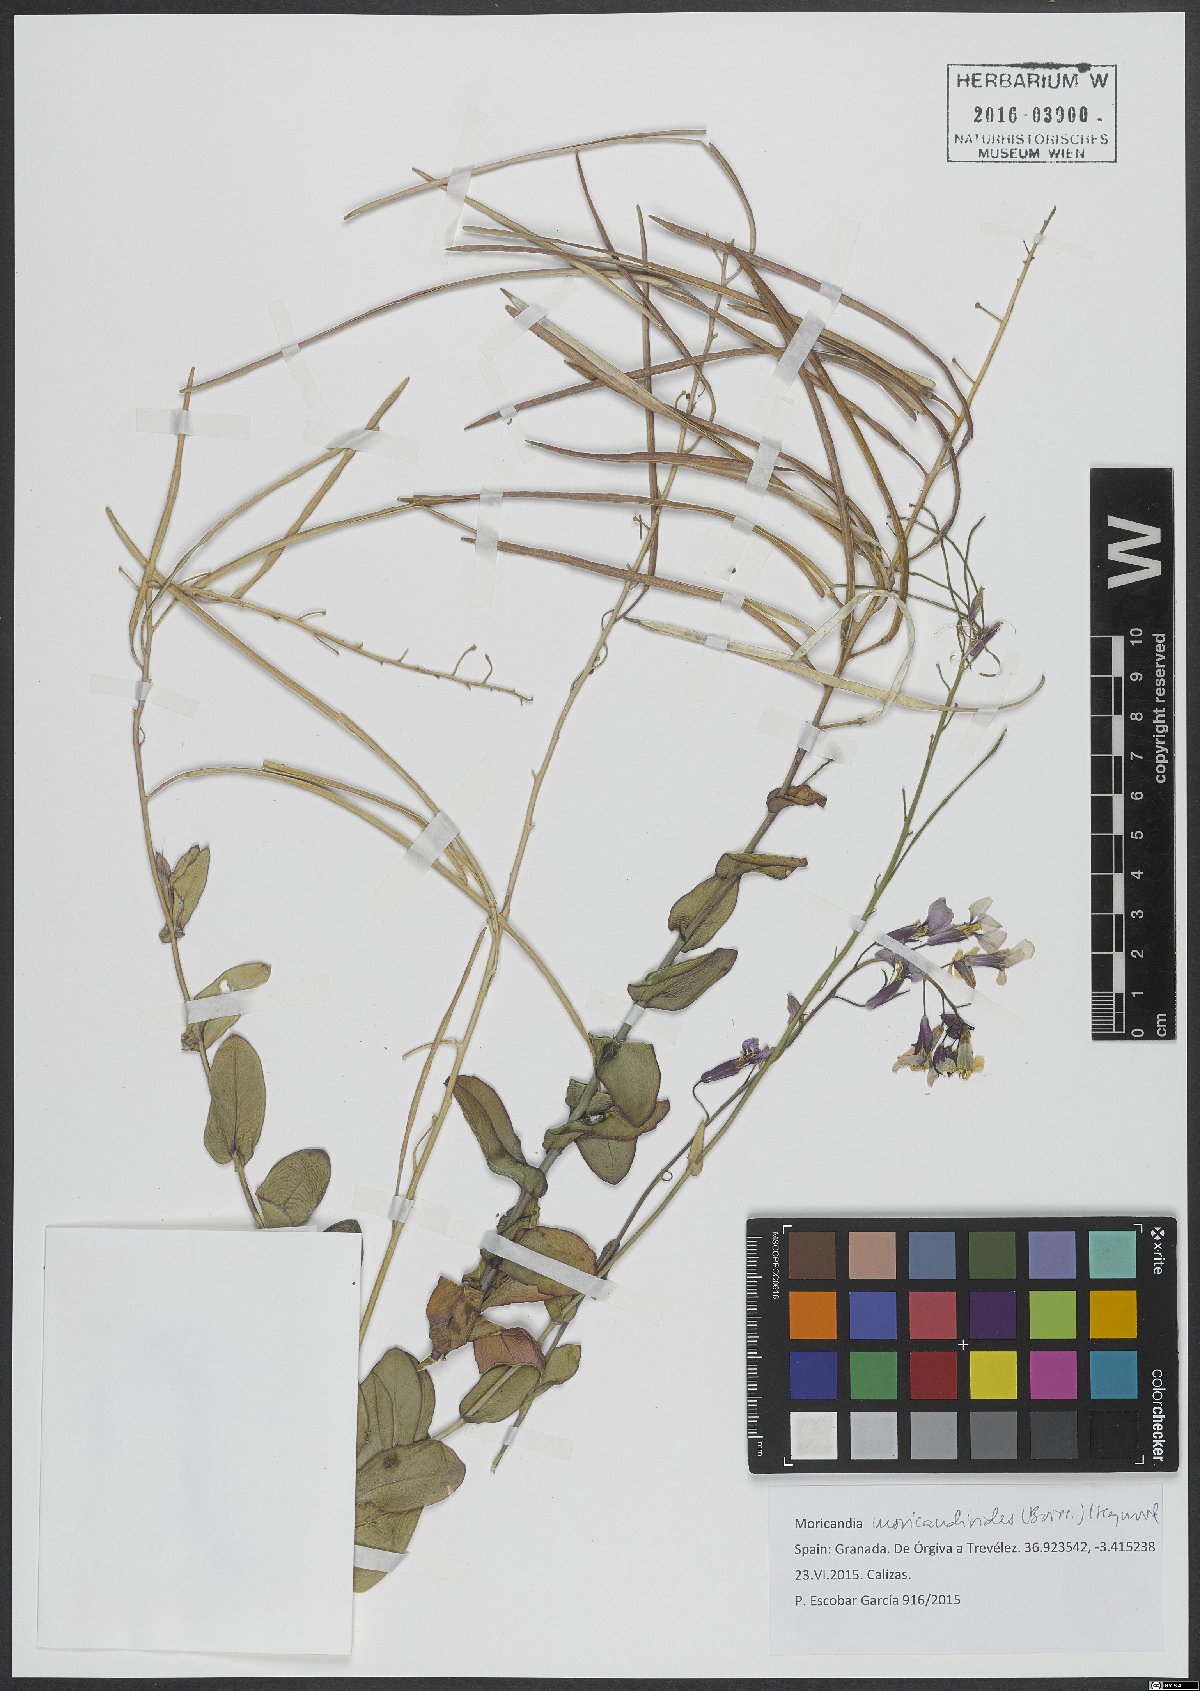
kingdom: Plantae
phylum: Tracheophyta
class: Magnoliopsida
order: Brassicales
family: Brassicaceae
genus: Moricandia
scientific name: Moricandia moricandioides
